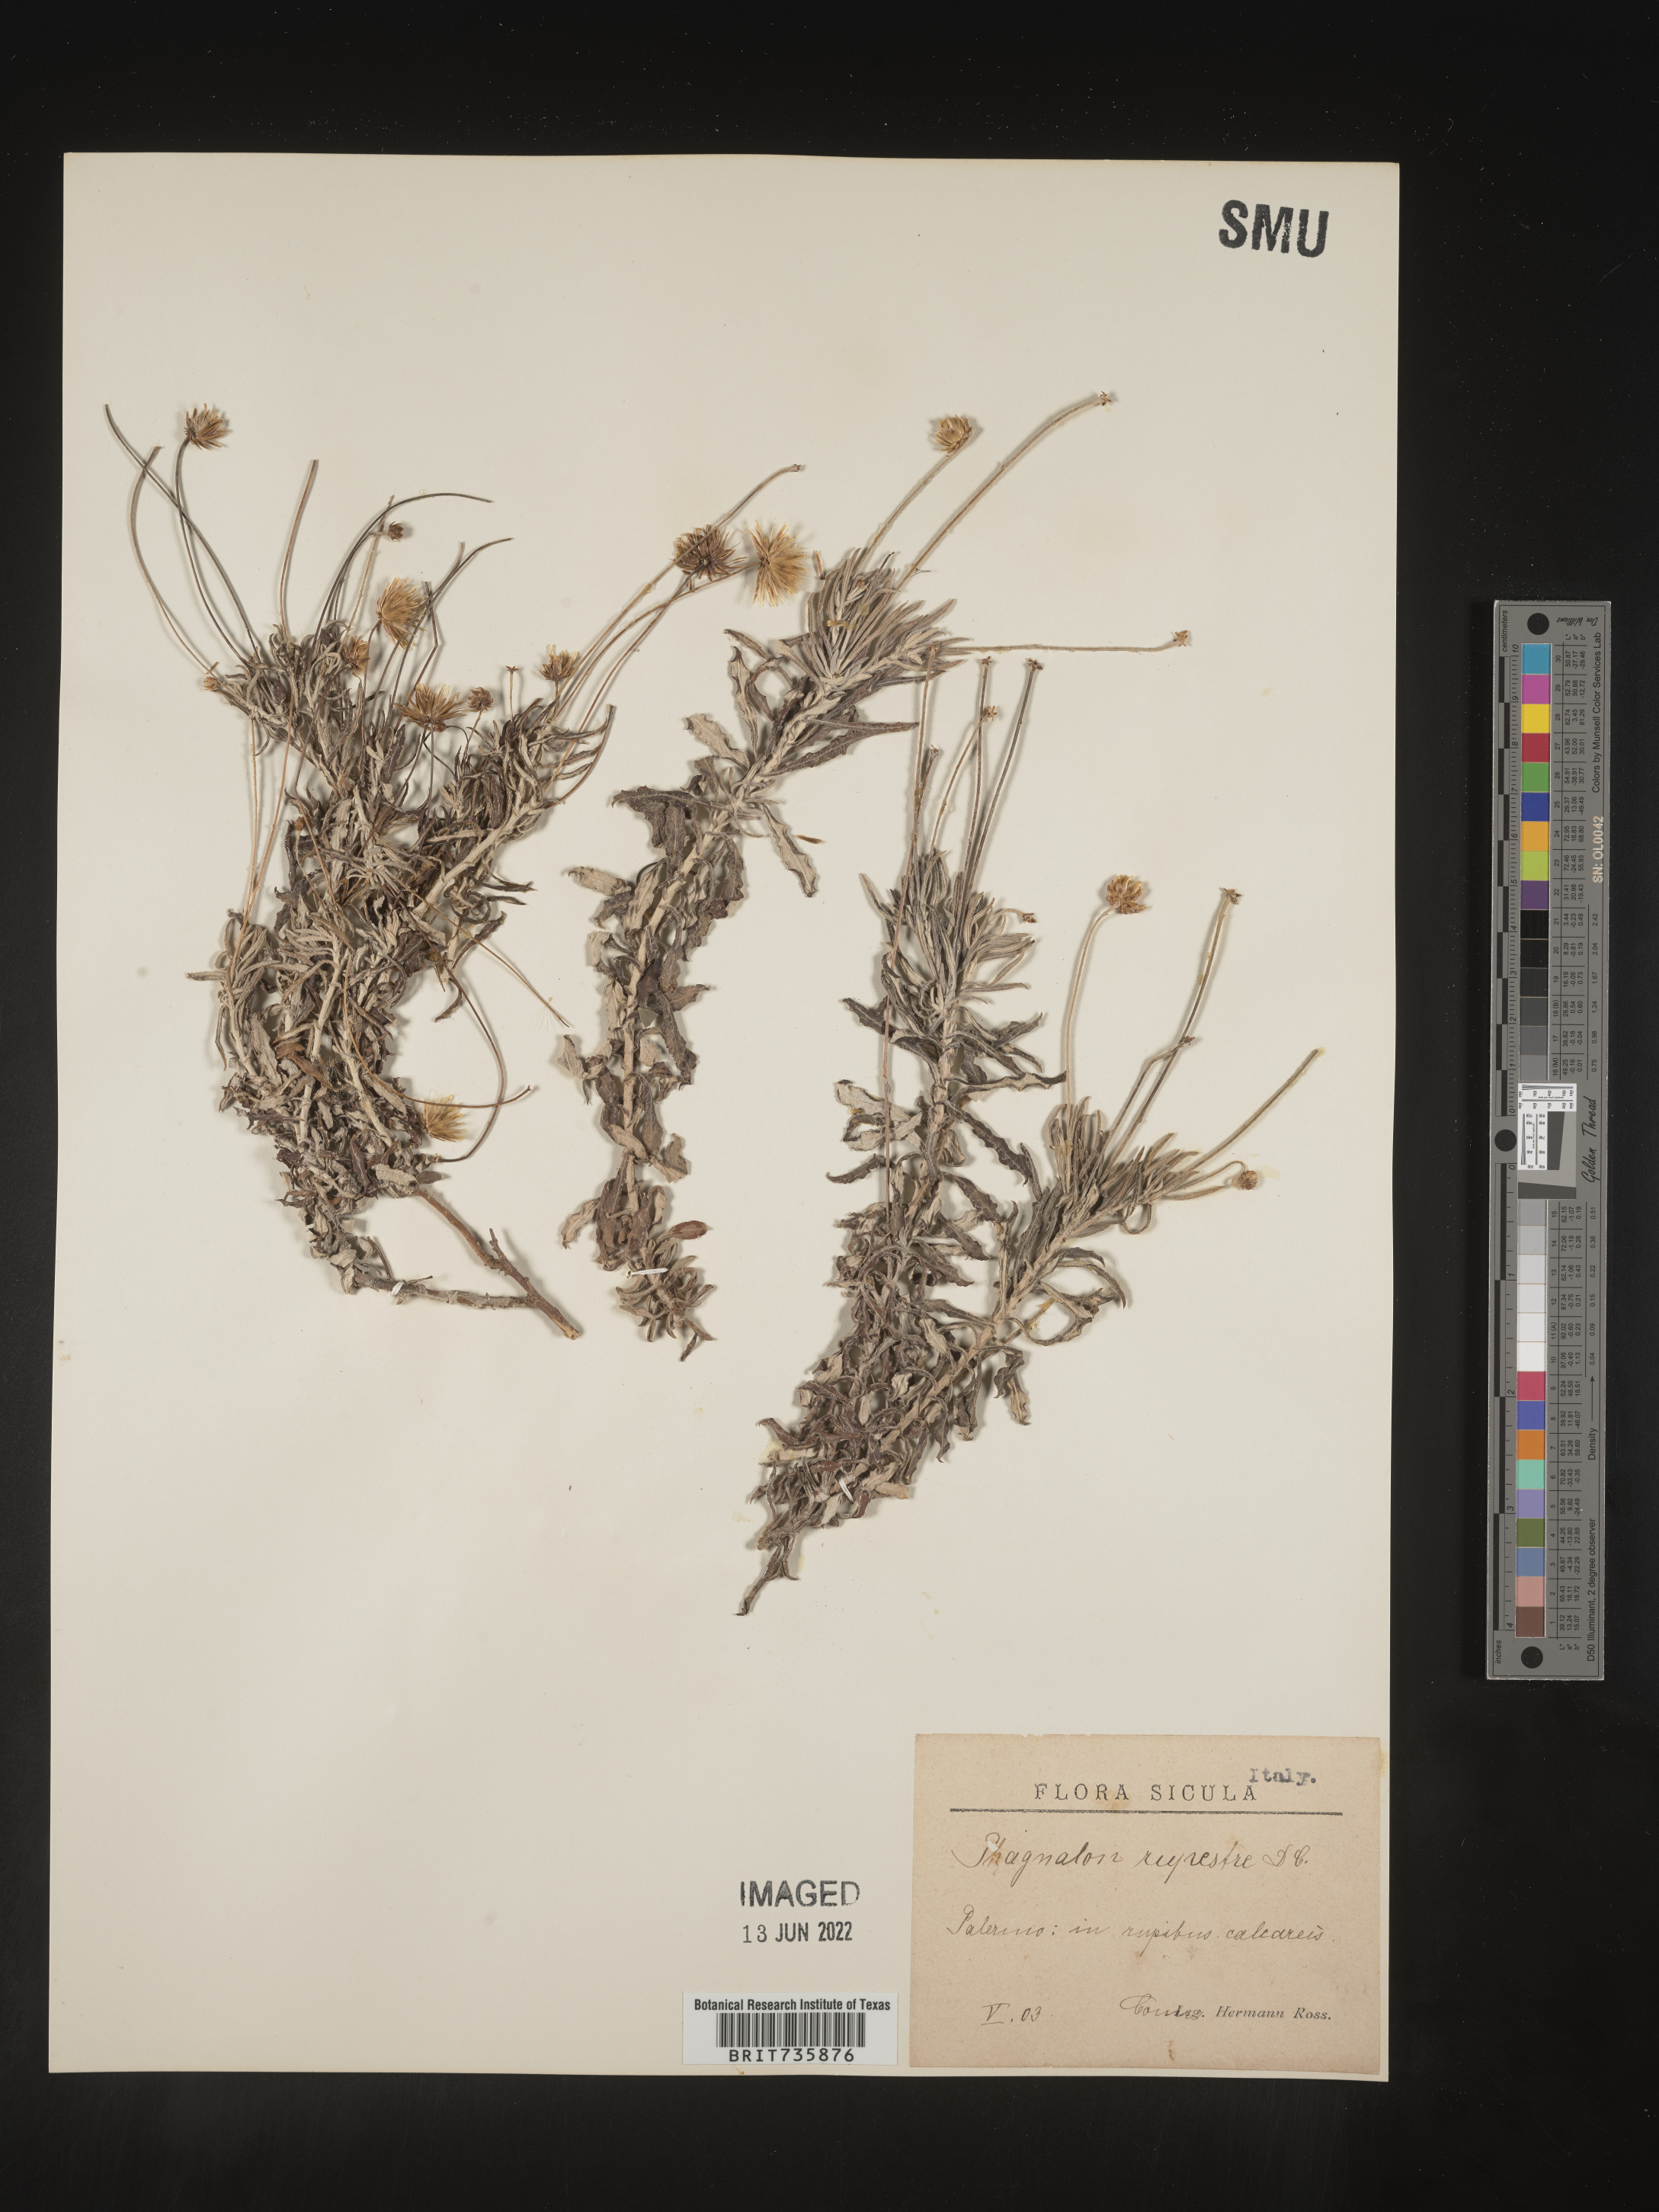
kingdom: Plantae
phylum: Tracheophyta
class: Magnoliopsida
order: Asterales
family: Asteraceae
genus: Phagnalon
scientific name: Phagnalon
